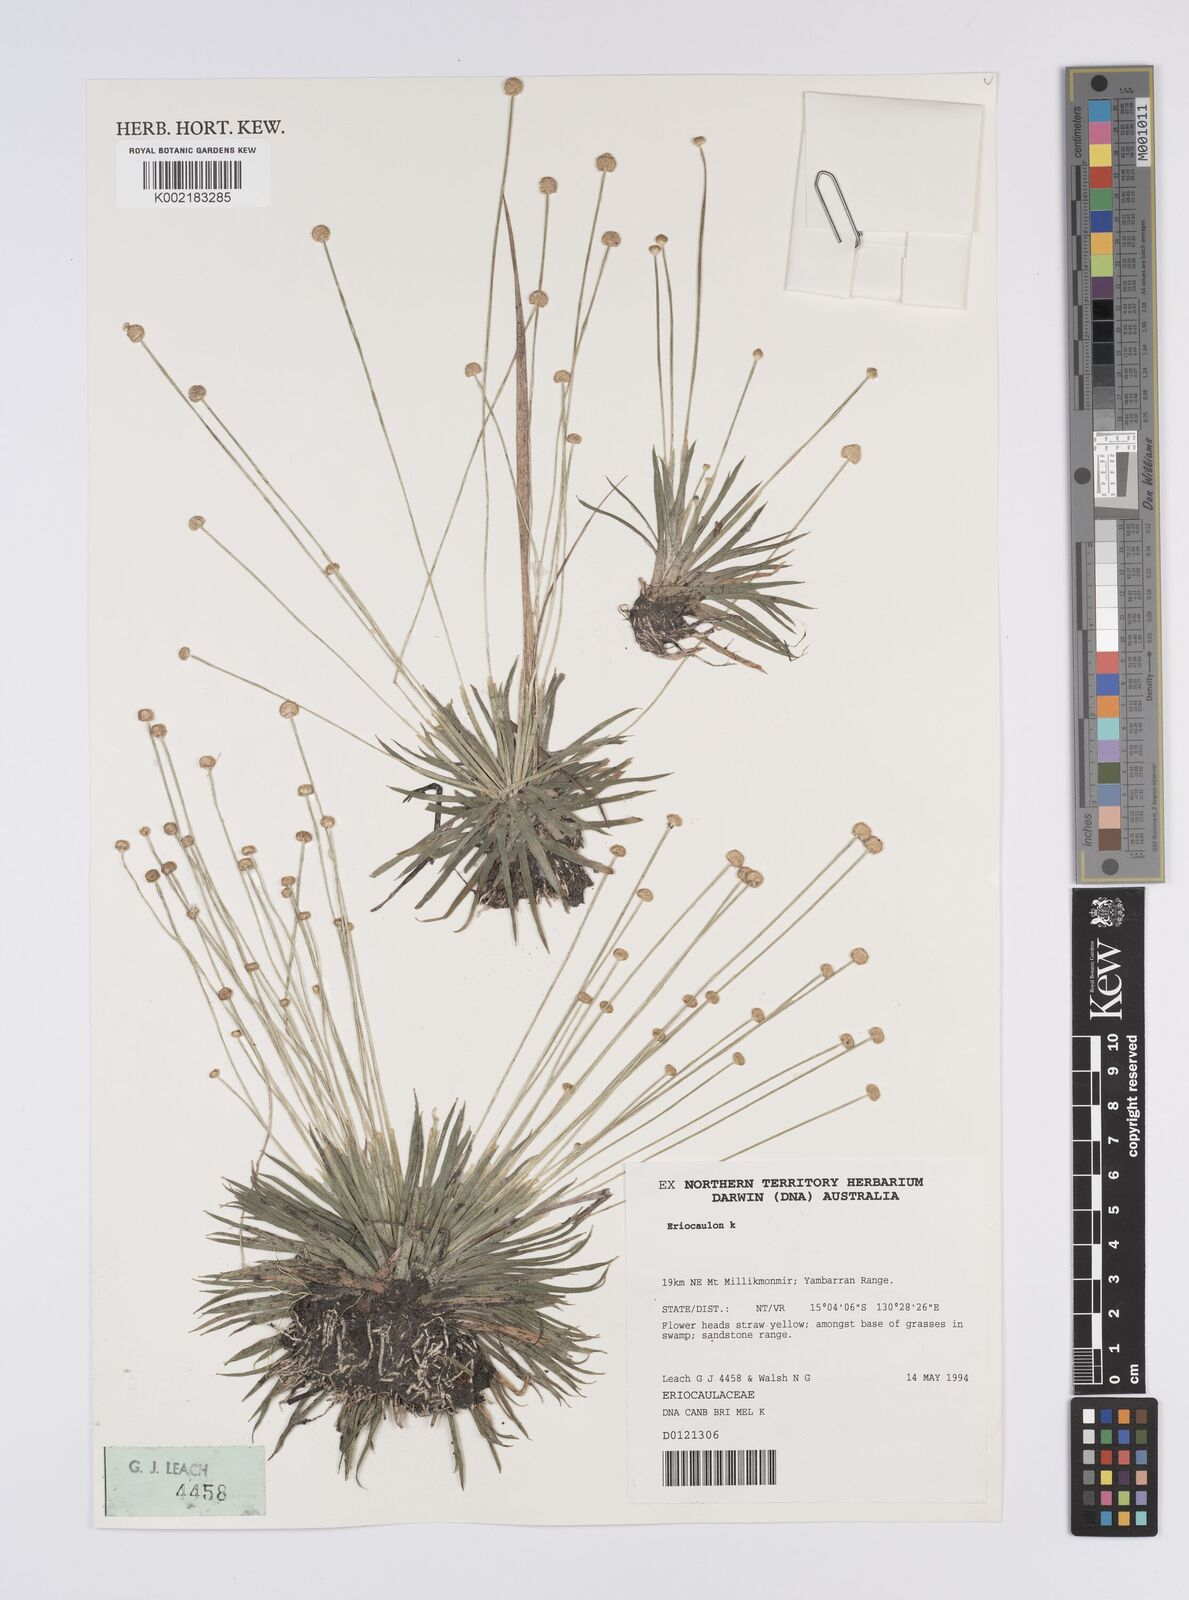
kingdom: Plantae
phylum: Tracheophyta
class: Liliopsida
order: Poales
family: Eriocaulaceae
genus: Eriocaulon
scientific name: Eriocaulon
